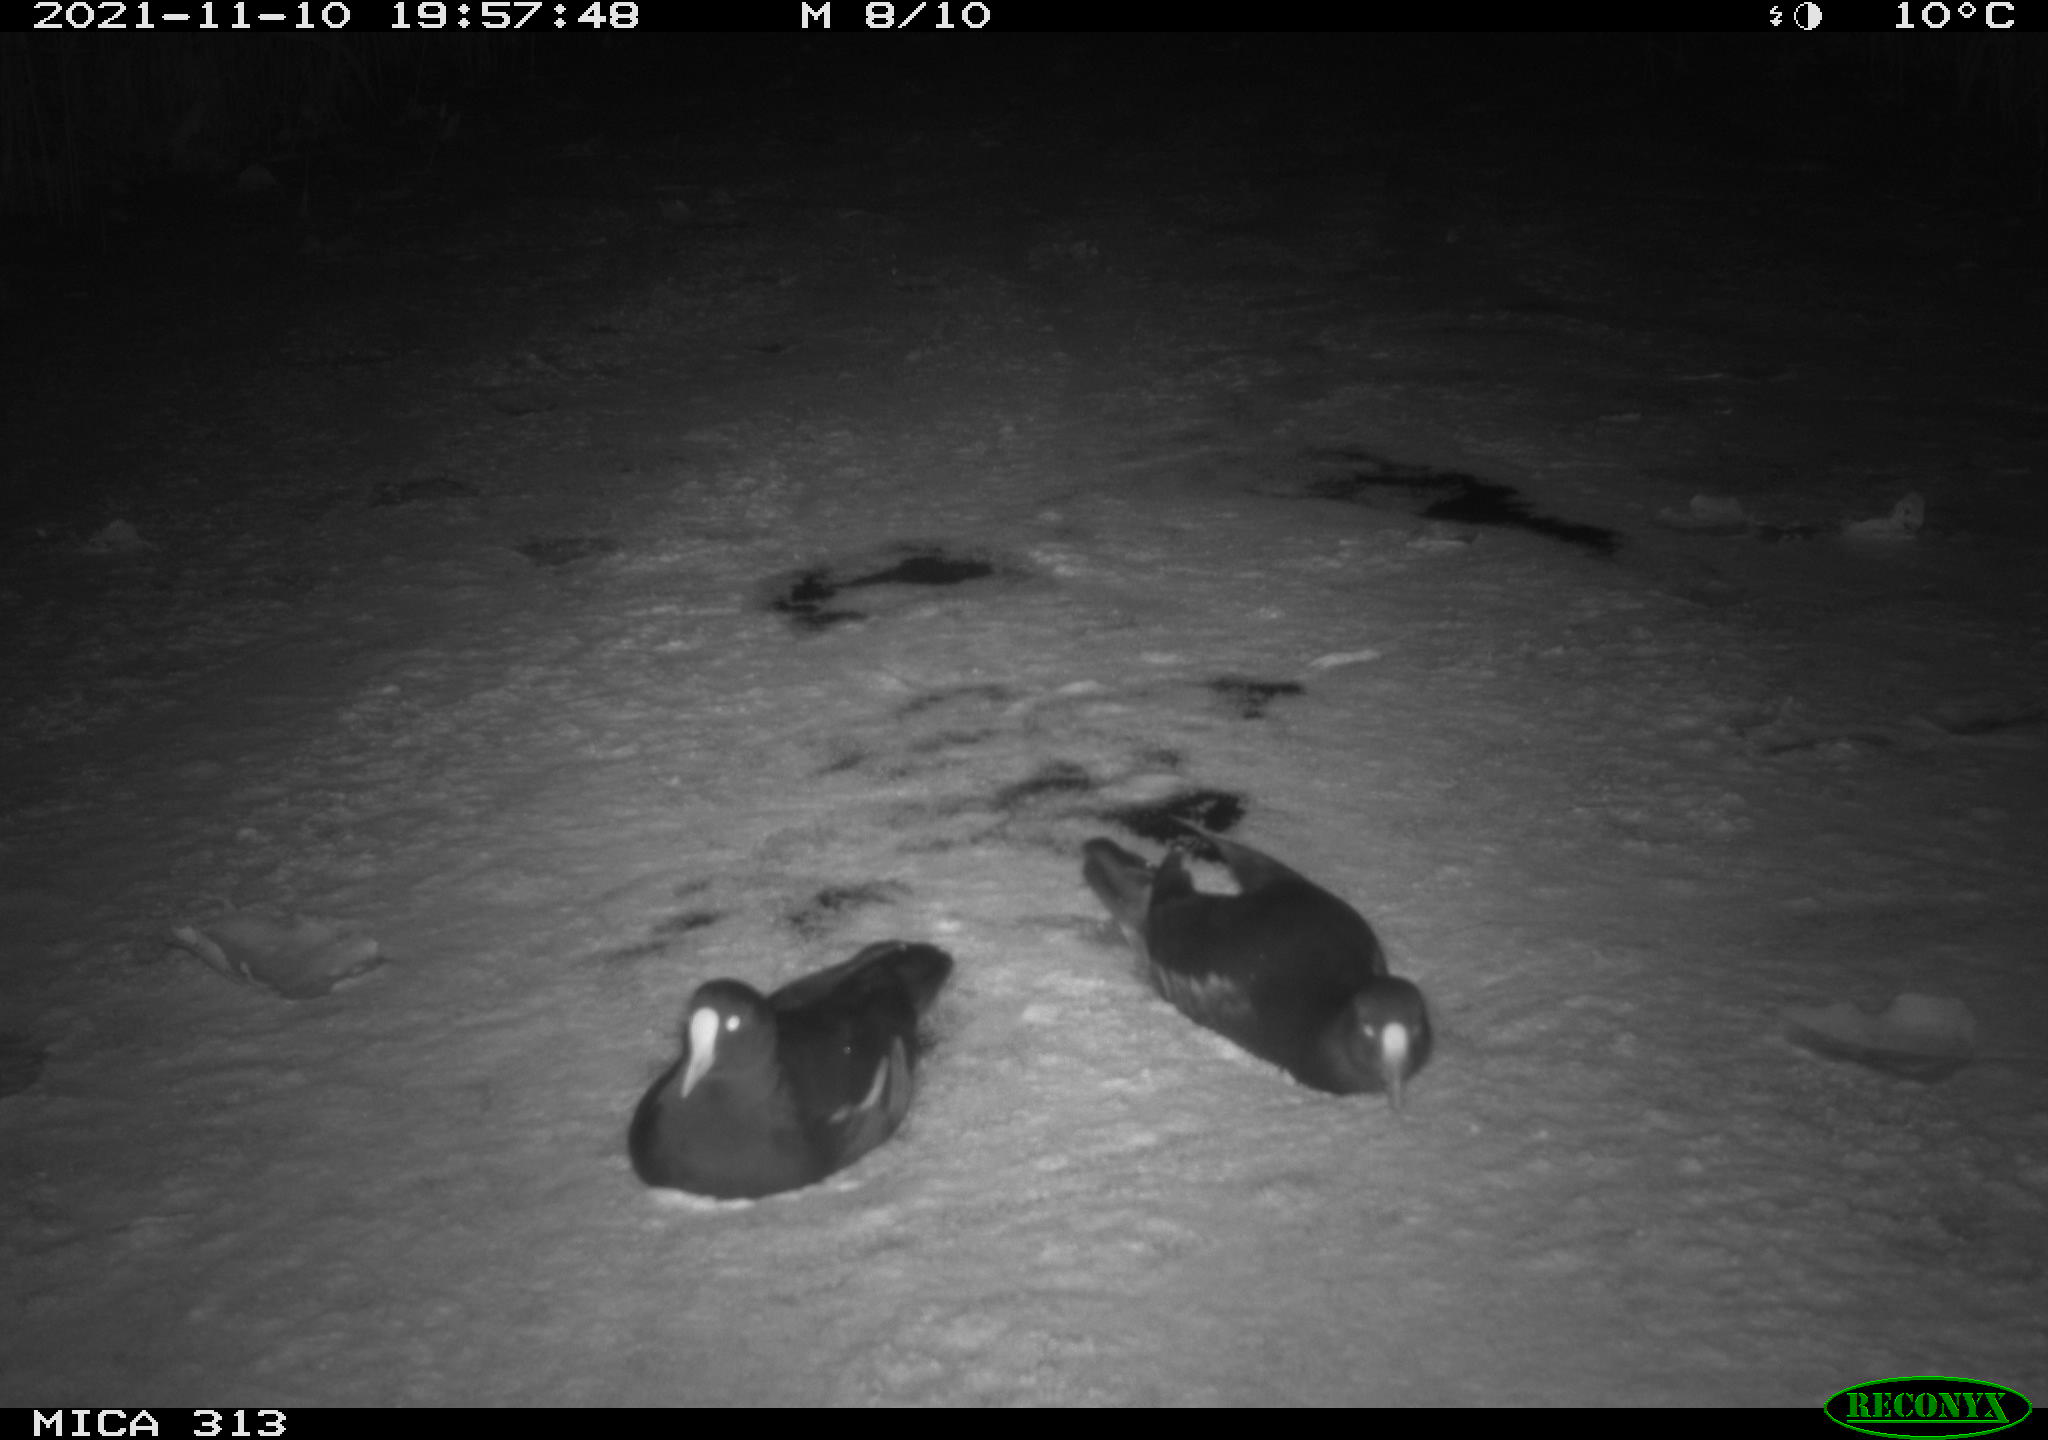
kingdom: Animalia
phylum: Chordata
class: Aves
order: Gruiformes
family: Rallidae
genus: Gallinula
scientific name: Gallinula chloropus
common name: Common moorhen
